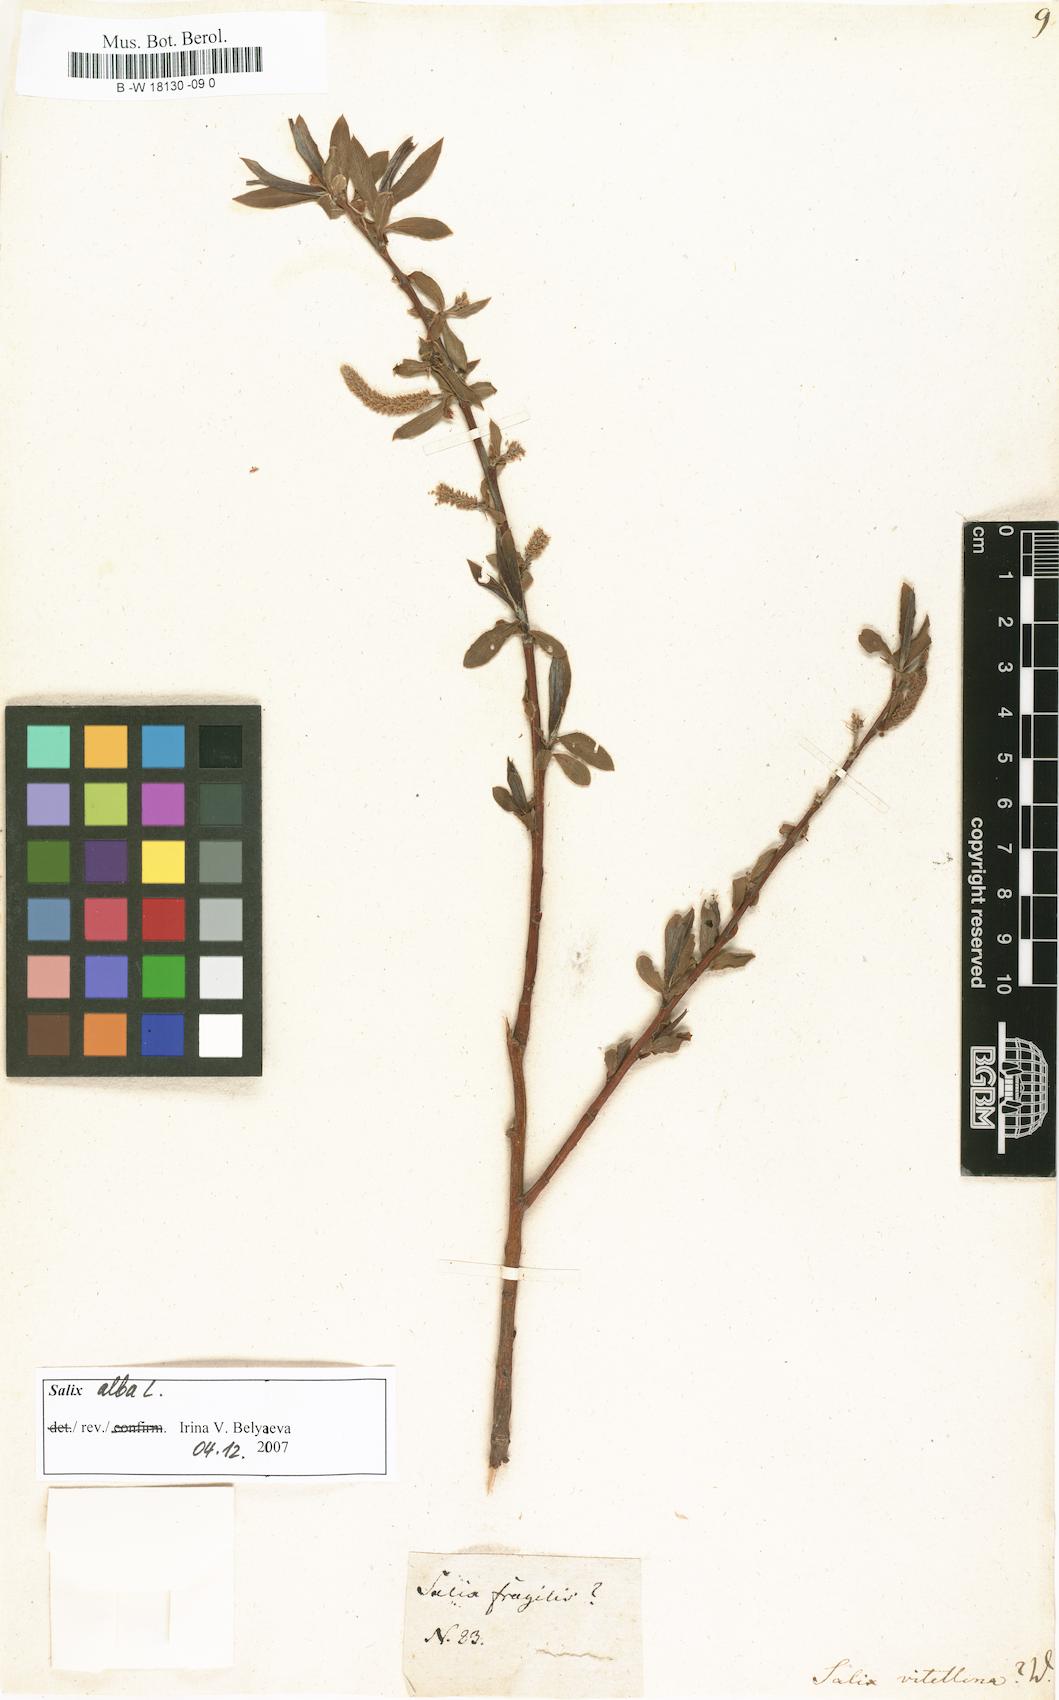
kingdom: Plantae
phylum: Tracheophyta
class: Magnoliopsida
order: Malpighiales
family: Salicaceae
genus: Salix
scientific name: Salix alba
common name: White willow
